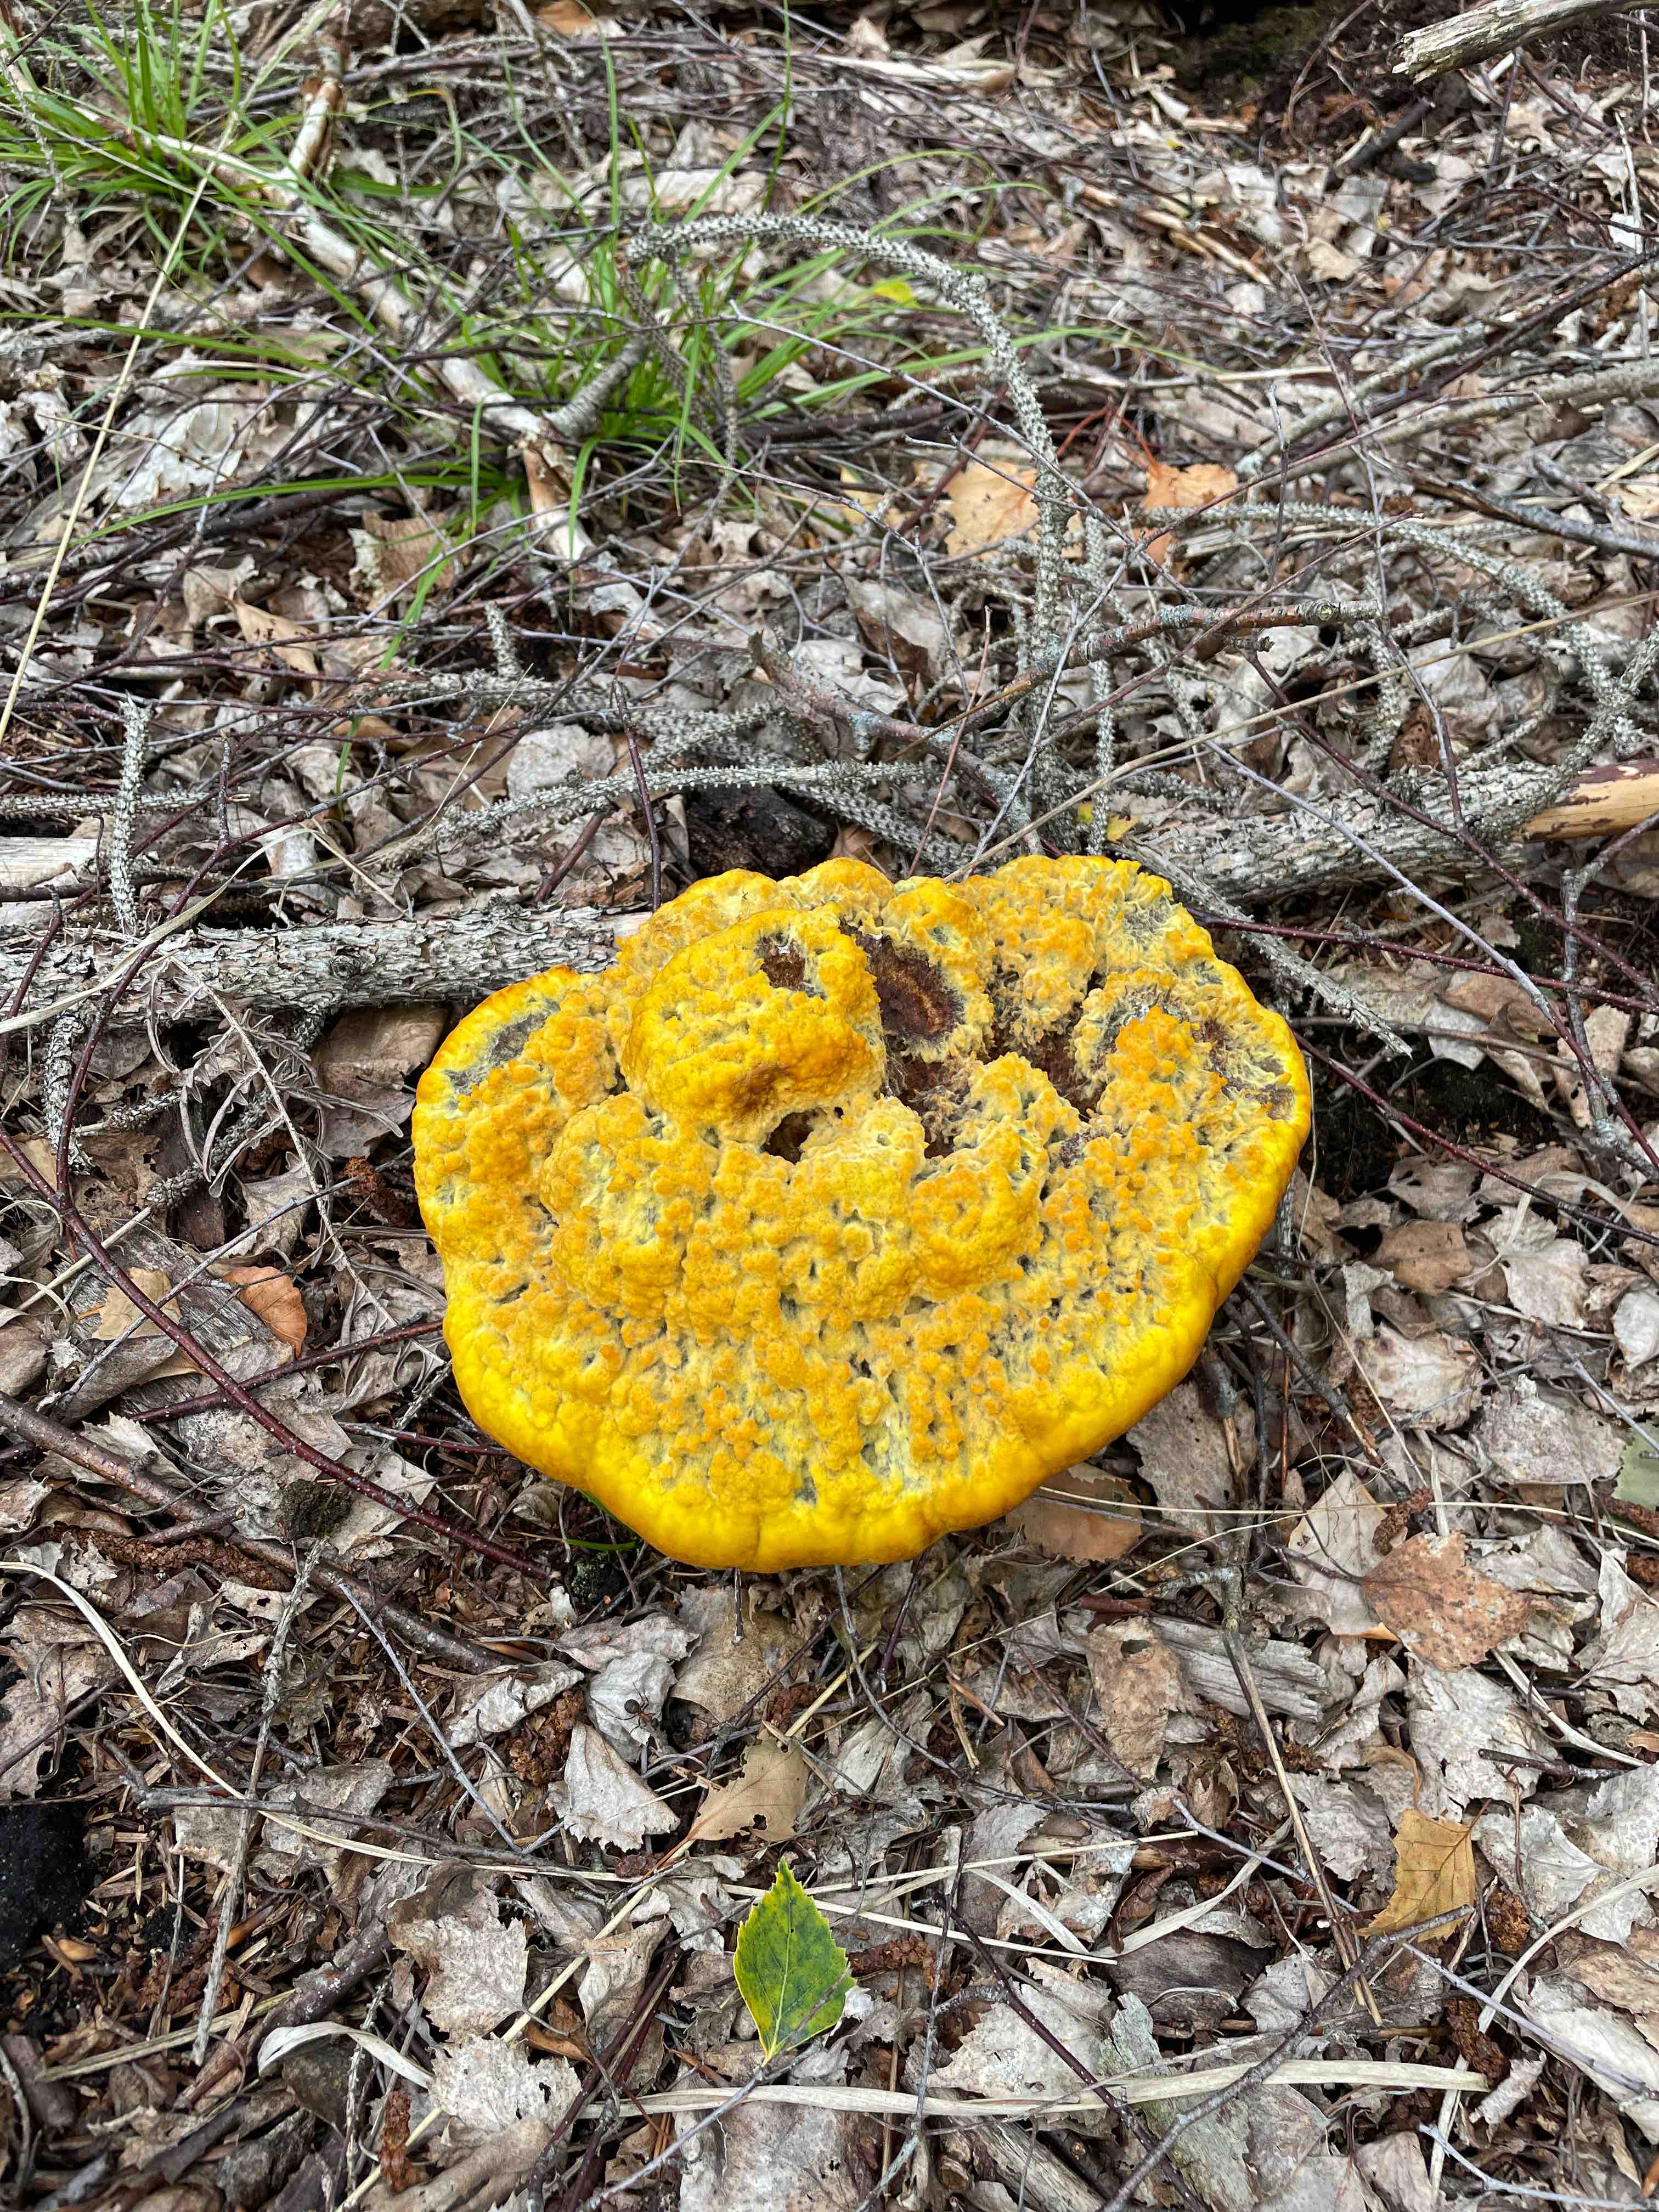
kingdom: Fungi
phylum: Basidiomycota
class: Agaricomycetes
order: Polyporales
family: Laetiporaceae
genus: Phaeolus
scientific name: Phaeolus schweinitzii
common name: brunporesvamp
